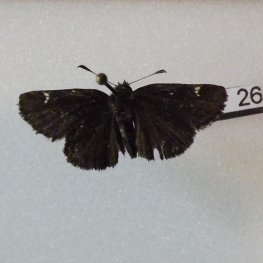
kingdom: Animalia
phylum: Arthropoda
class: Insecta
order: Lepidoptera
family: Hesperiidae
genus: Mastor
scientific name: Mastor vialis
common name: Common Roadside-Skipper
